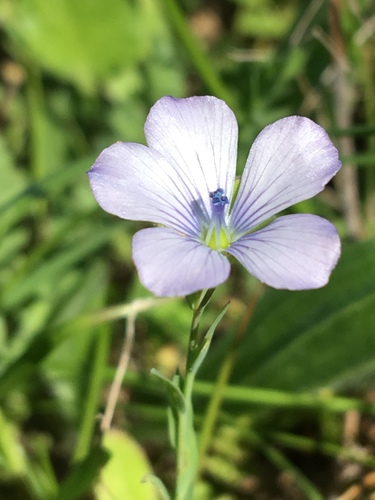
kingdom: Plantae
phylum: Tracheophyta
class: Magnoliopsida
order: Malpighiales
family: Linaceae
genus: Linum
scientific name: Linum bienne
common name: Pale flax
